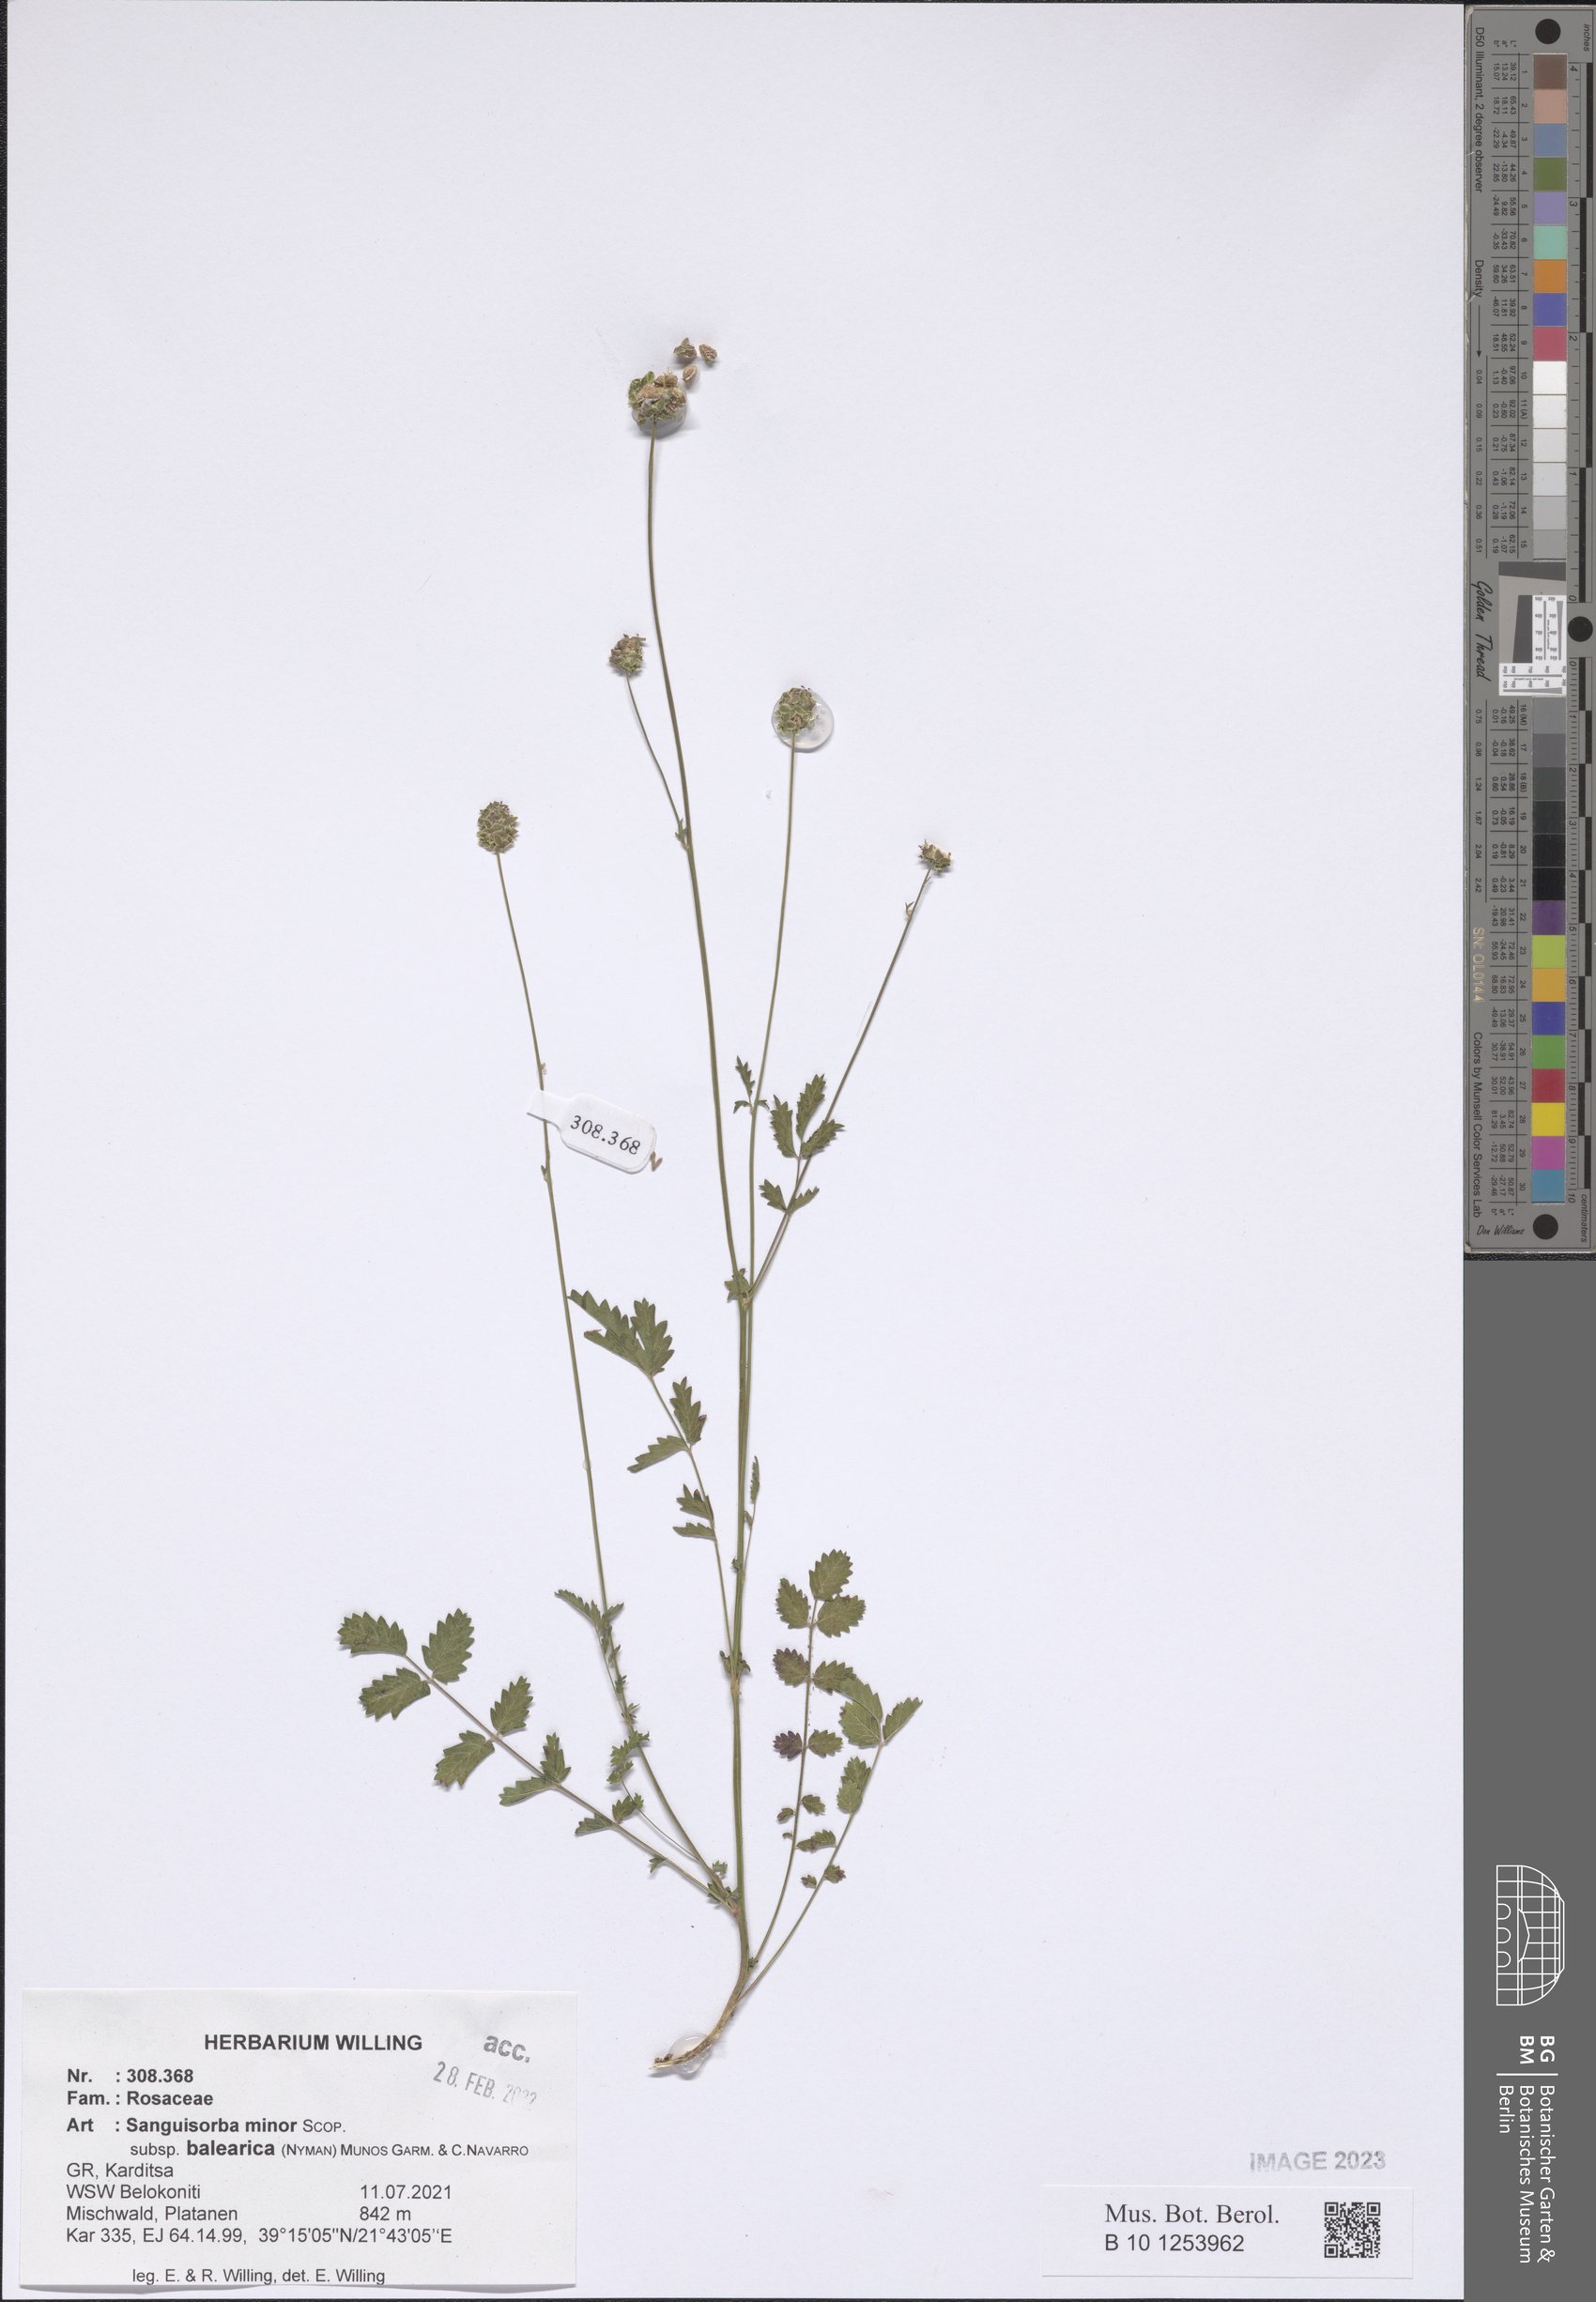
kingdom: Plantae
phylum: Tracheophyta
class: Magnoliopsida
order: Rosales
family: Rosaceae
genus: Poterium
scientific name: Poterium sanguisorba
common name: Salad burnet
